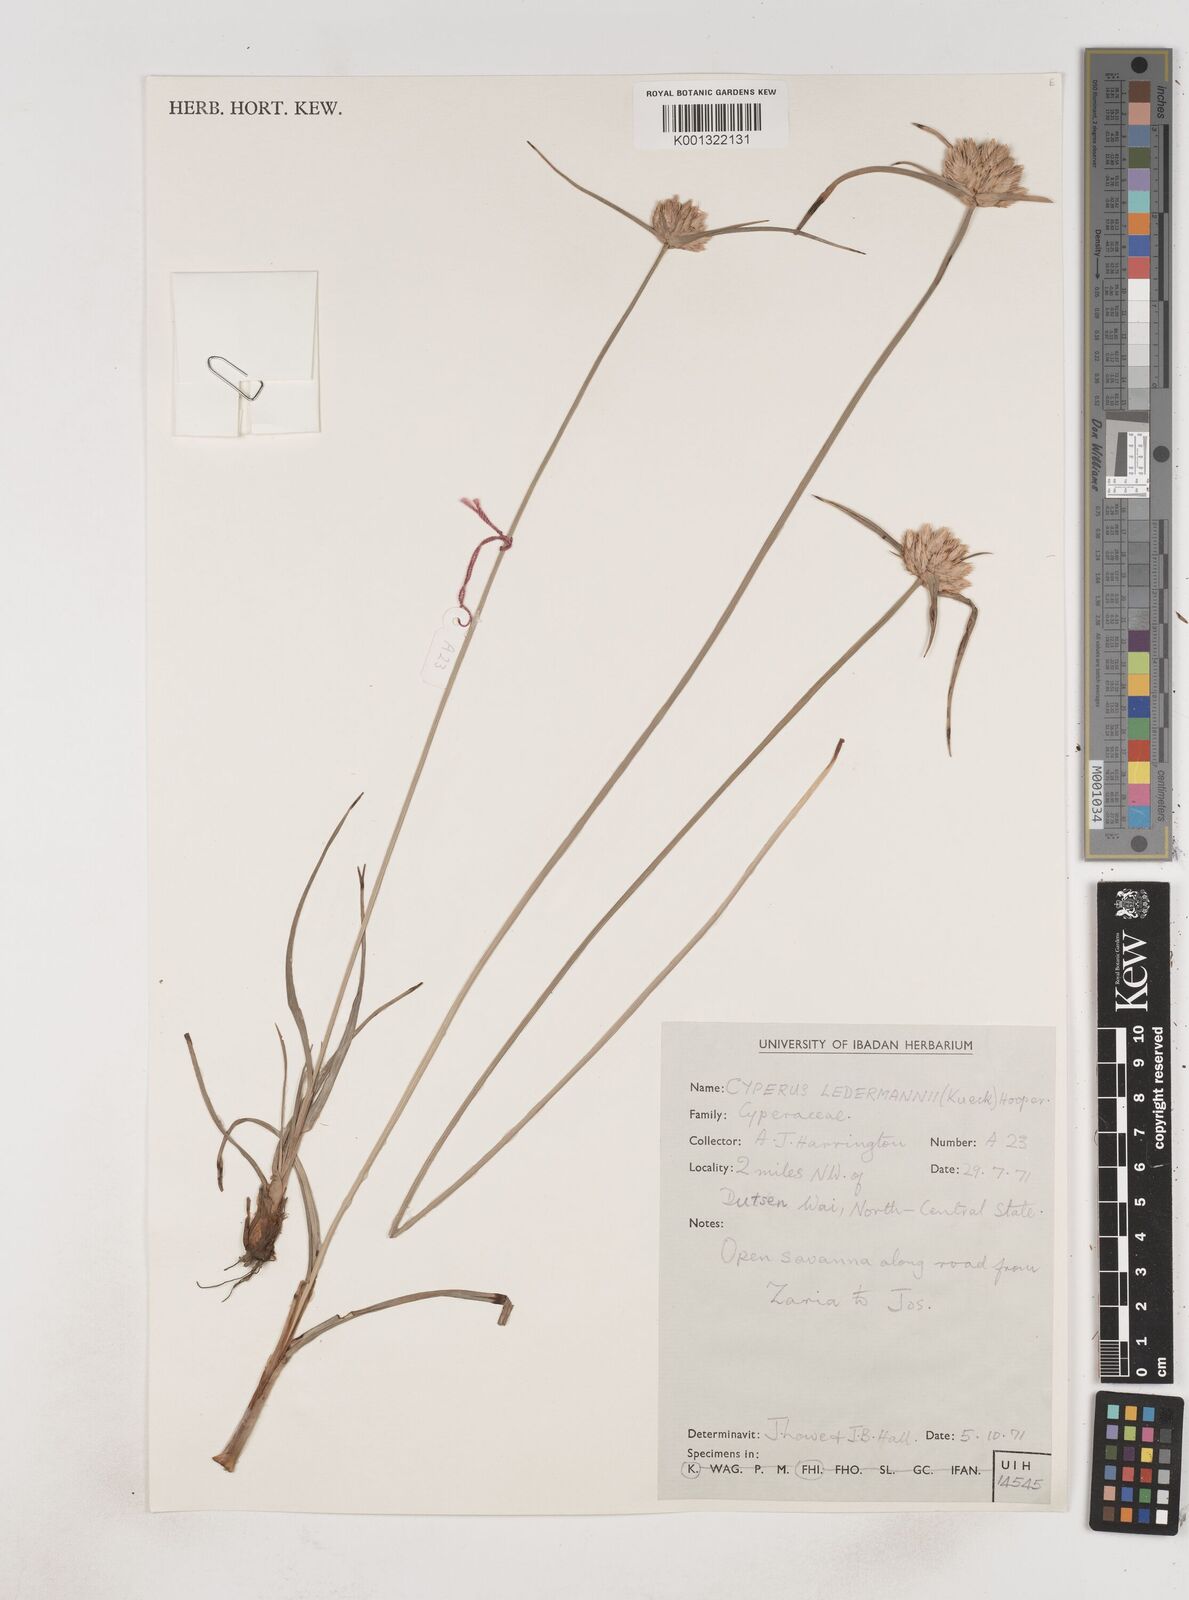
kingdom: Plantae
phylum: Tracheophyta
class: Liliopsida
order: Poales
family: Cyperaceae
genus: Cyperus
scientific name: Cyperus niveus
